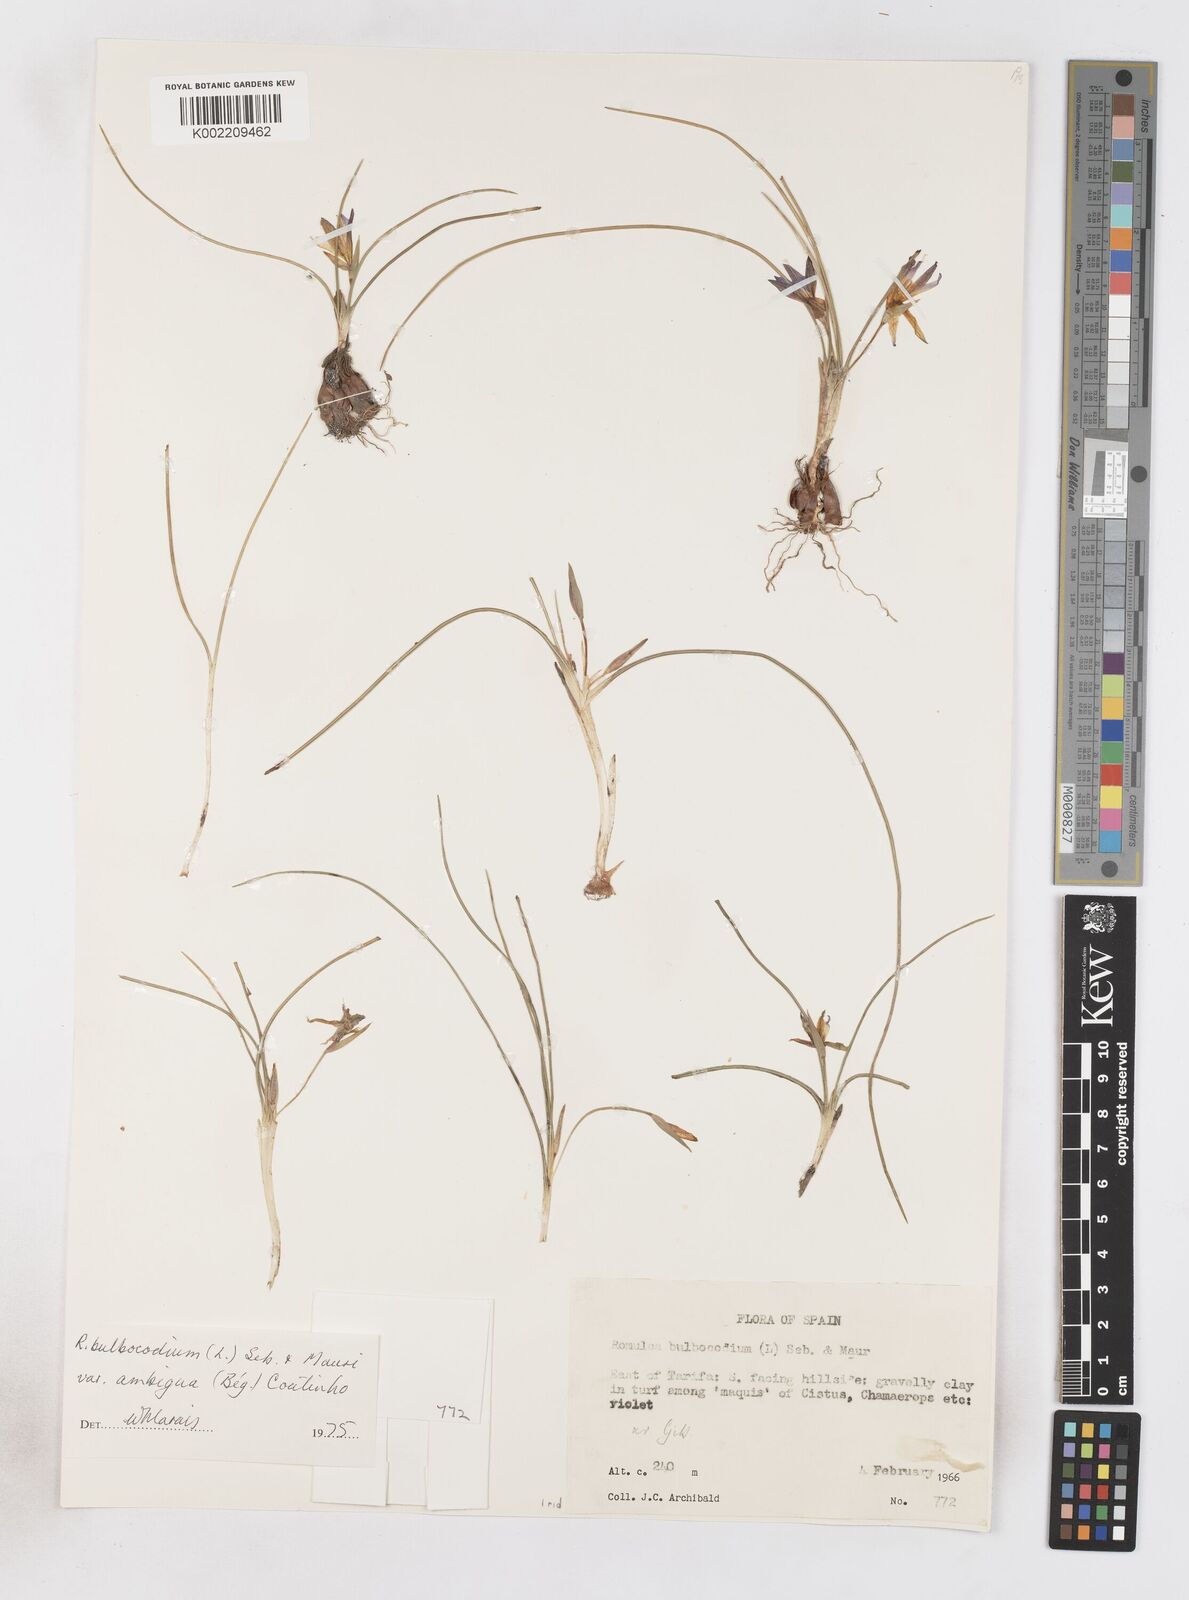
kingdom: Plantae
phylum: Tracheophyta
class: Liliopsida
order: Asparagales
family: Iridaceae
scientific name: Iridaceae
